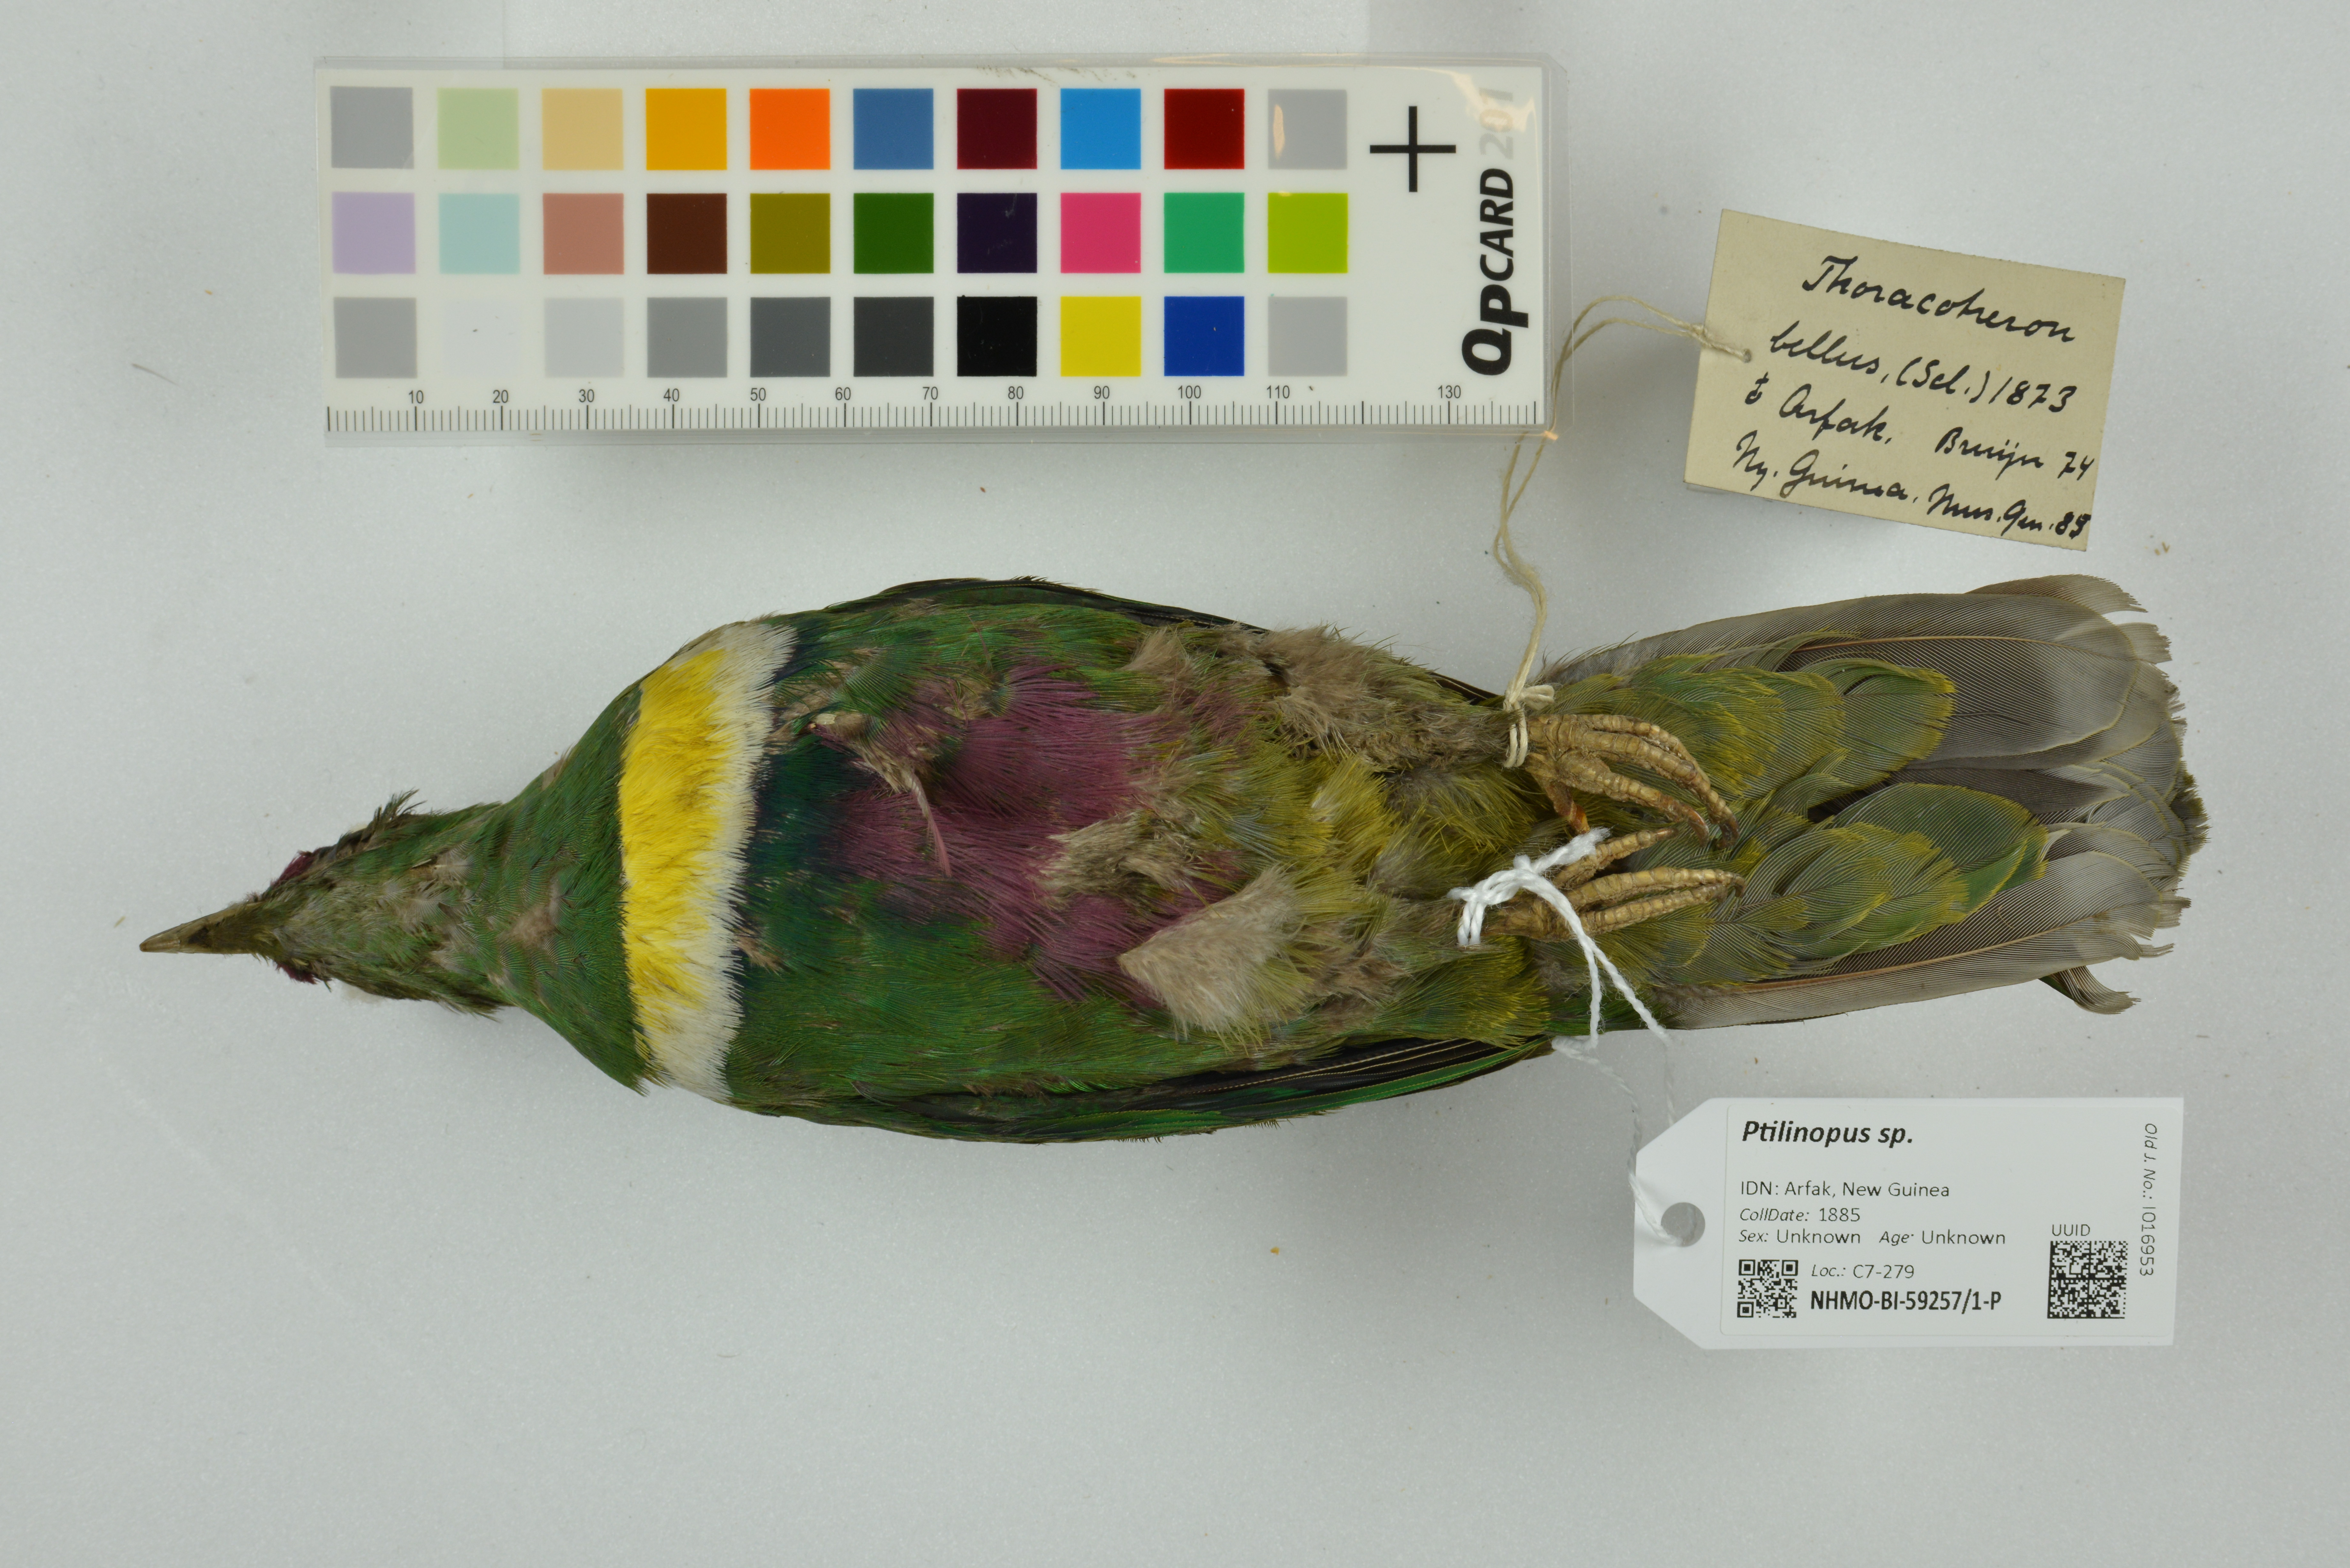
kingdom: Animalia
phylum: Chordata
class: Aves
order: Columbiformes
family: Columbidae
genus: Ptilinopus
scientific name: Ptilinopus rivoli
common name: White-bibbed fruit dove
